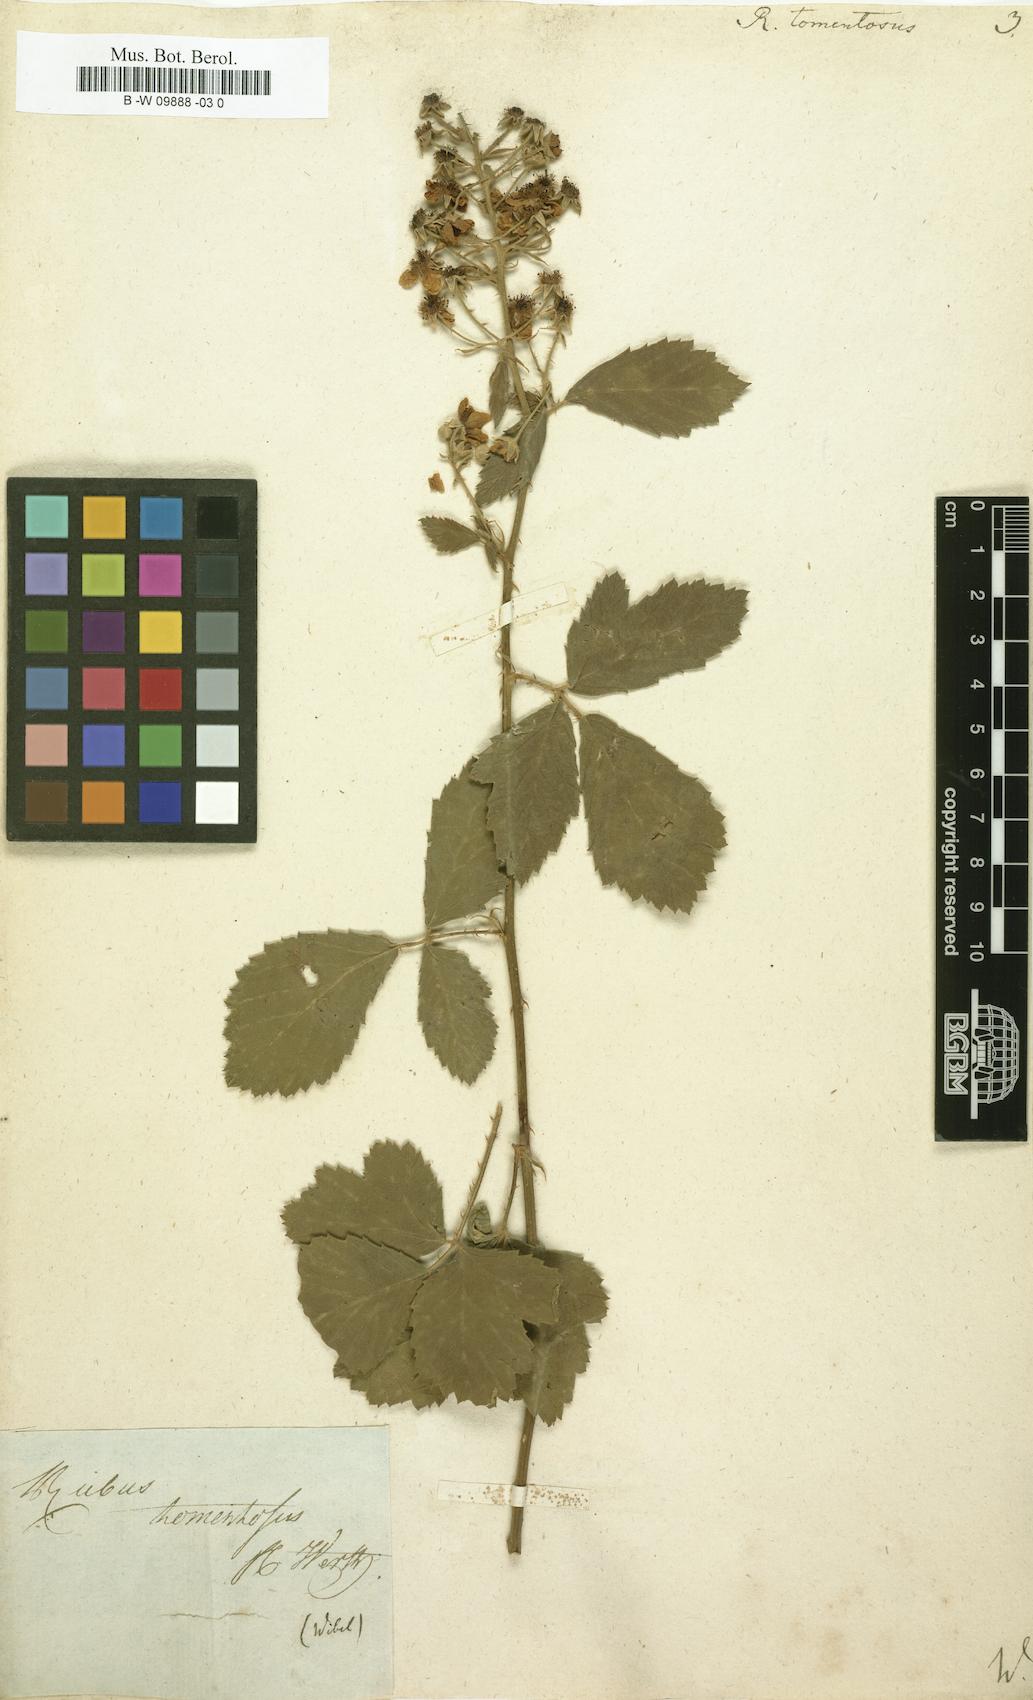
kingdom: Plantae
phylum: Tracheophyta
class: Magnoliopsida
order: Rosales
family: Rosaceae
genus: Rubus
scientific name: Rubus aetnicus
